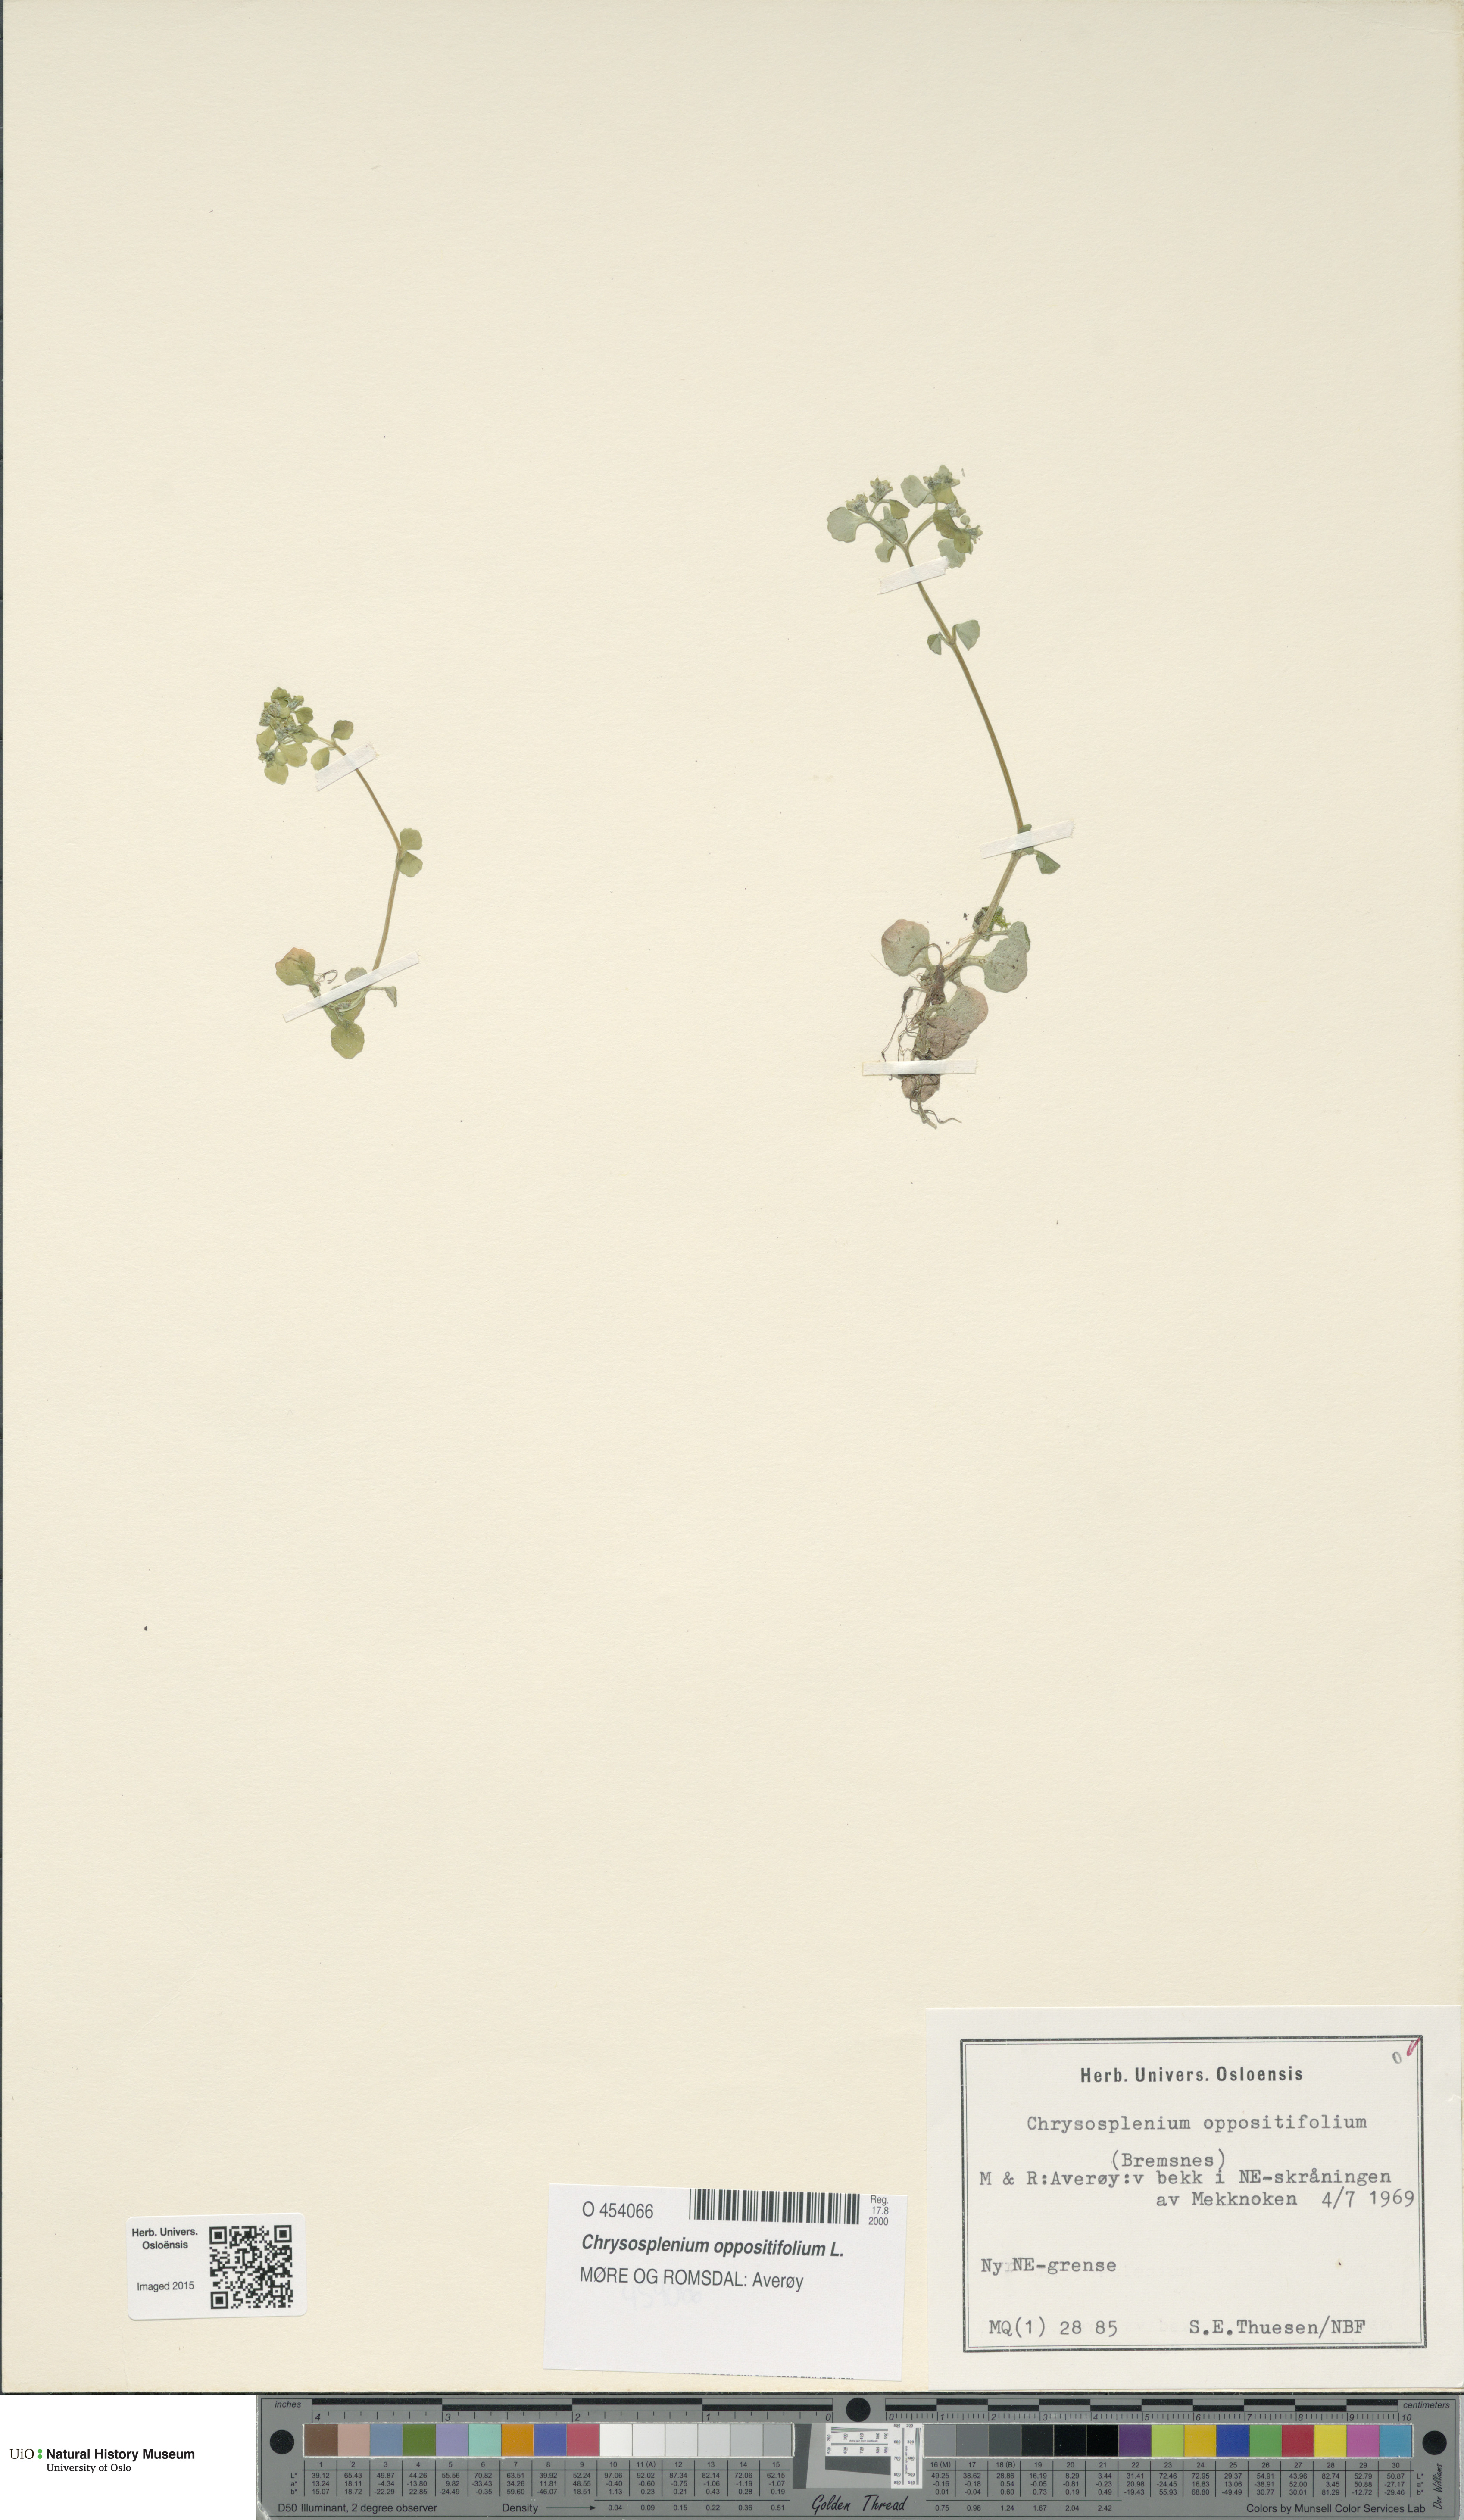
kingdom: Plantae
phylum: Tracheophyta
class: Magnoliopsida
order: Saxifragales
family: Saxifragaceae
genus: Chrysosplenium
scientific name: Chrysosplenium oppositifolium
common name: Opposite-leaved golden-saxifrage
